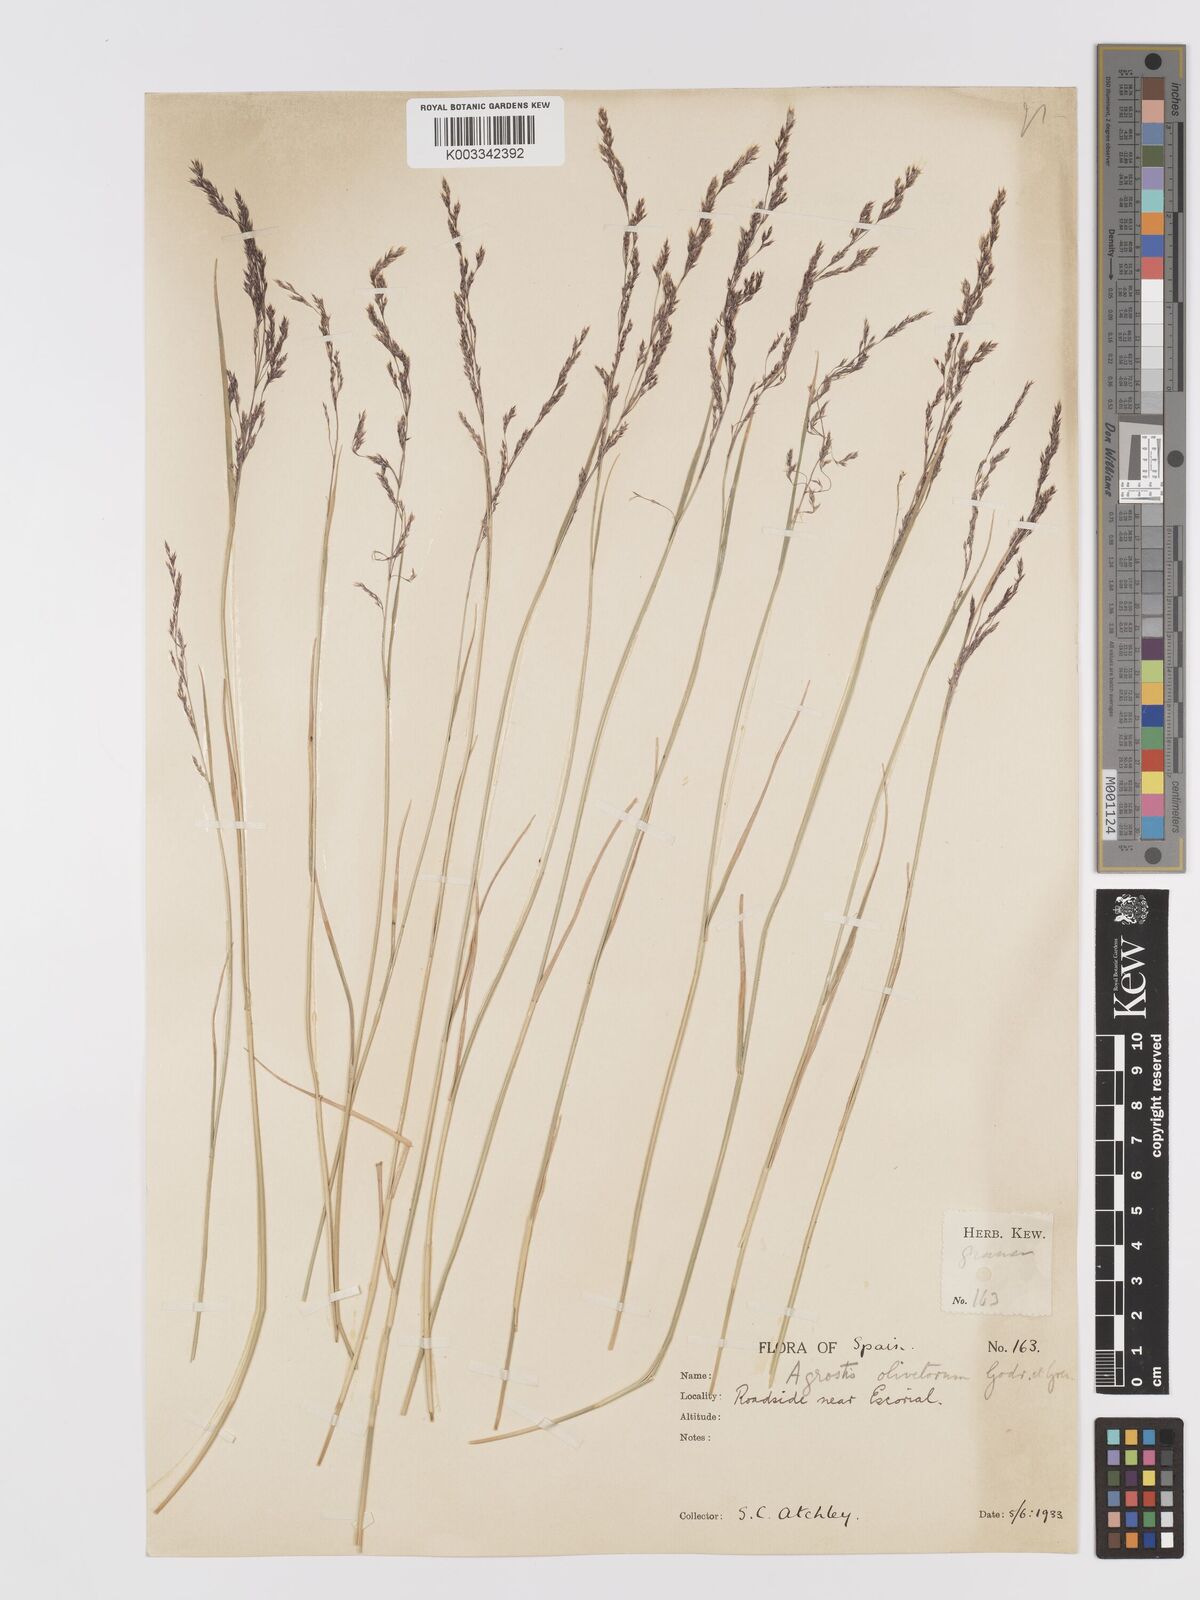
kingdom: Plantae
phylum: Tracheophyta
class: Liliopsida
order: Poales
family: Poaceae
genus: Agrostis
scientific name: Agrostis castellana
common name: Highland bent
